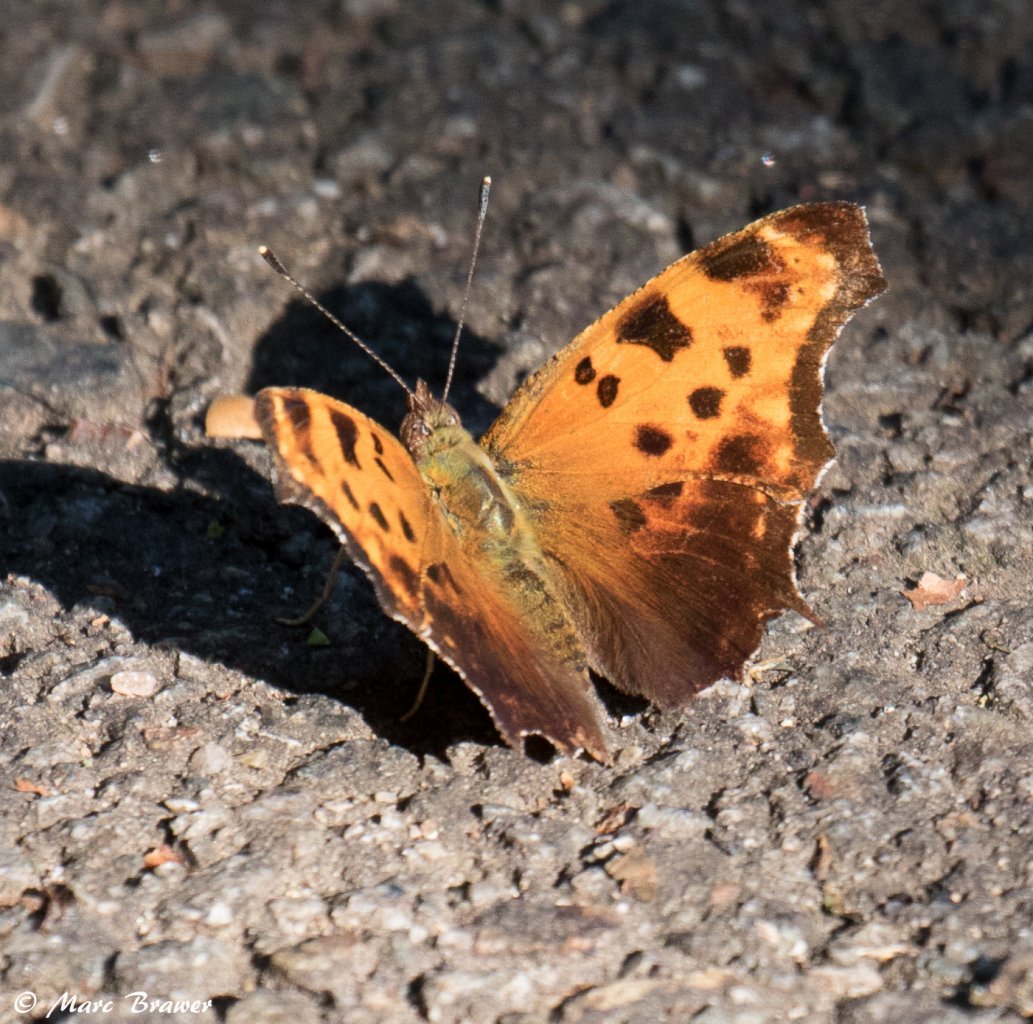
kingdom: Animalia
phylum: Arthropoda
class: Insecta
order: Lepidoptera
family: Nymphalidae
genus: Polygonia
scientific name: Polygonia comma
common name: Eastern Comma
